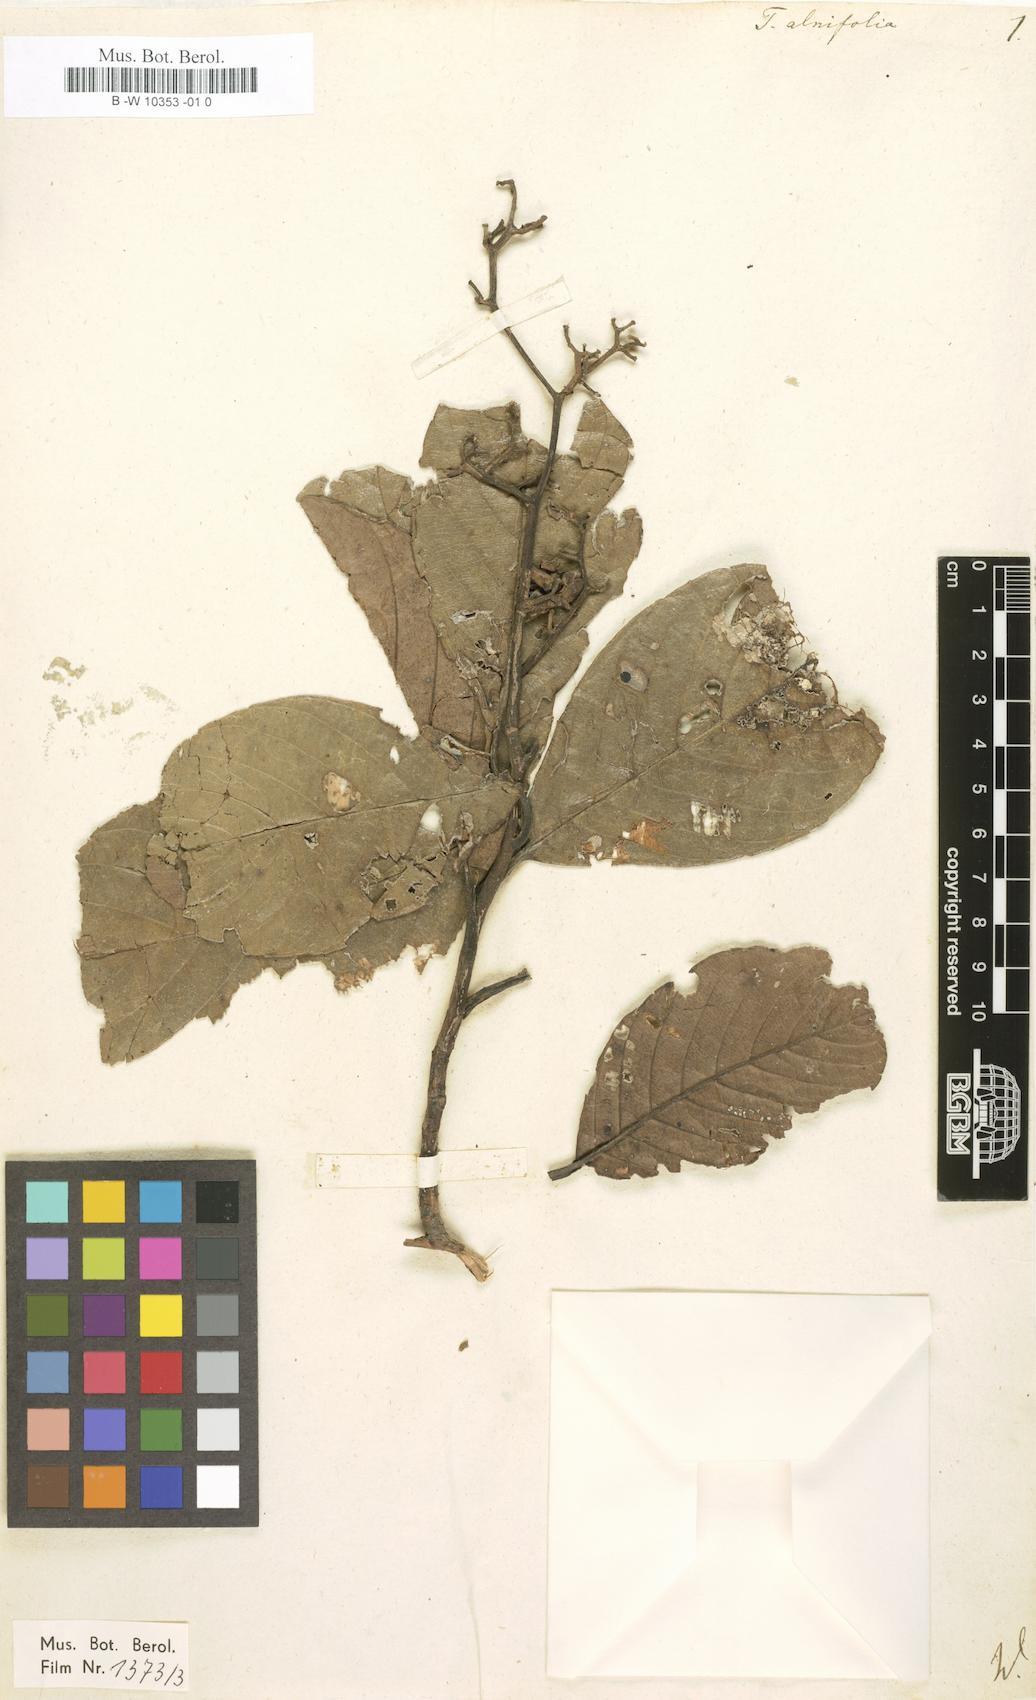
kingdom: Plantae
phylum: Tracheophyta
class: Magnoliopsida
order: Dilleniales
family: Dilleniaceae
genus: Tetracera
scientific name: Tetracera alnifolia
